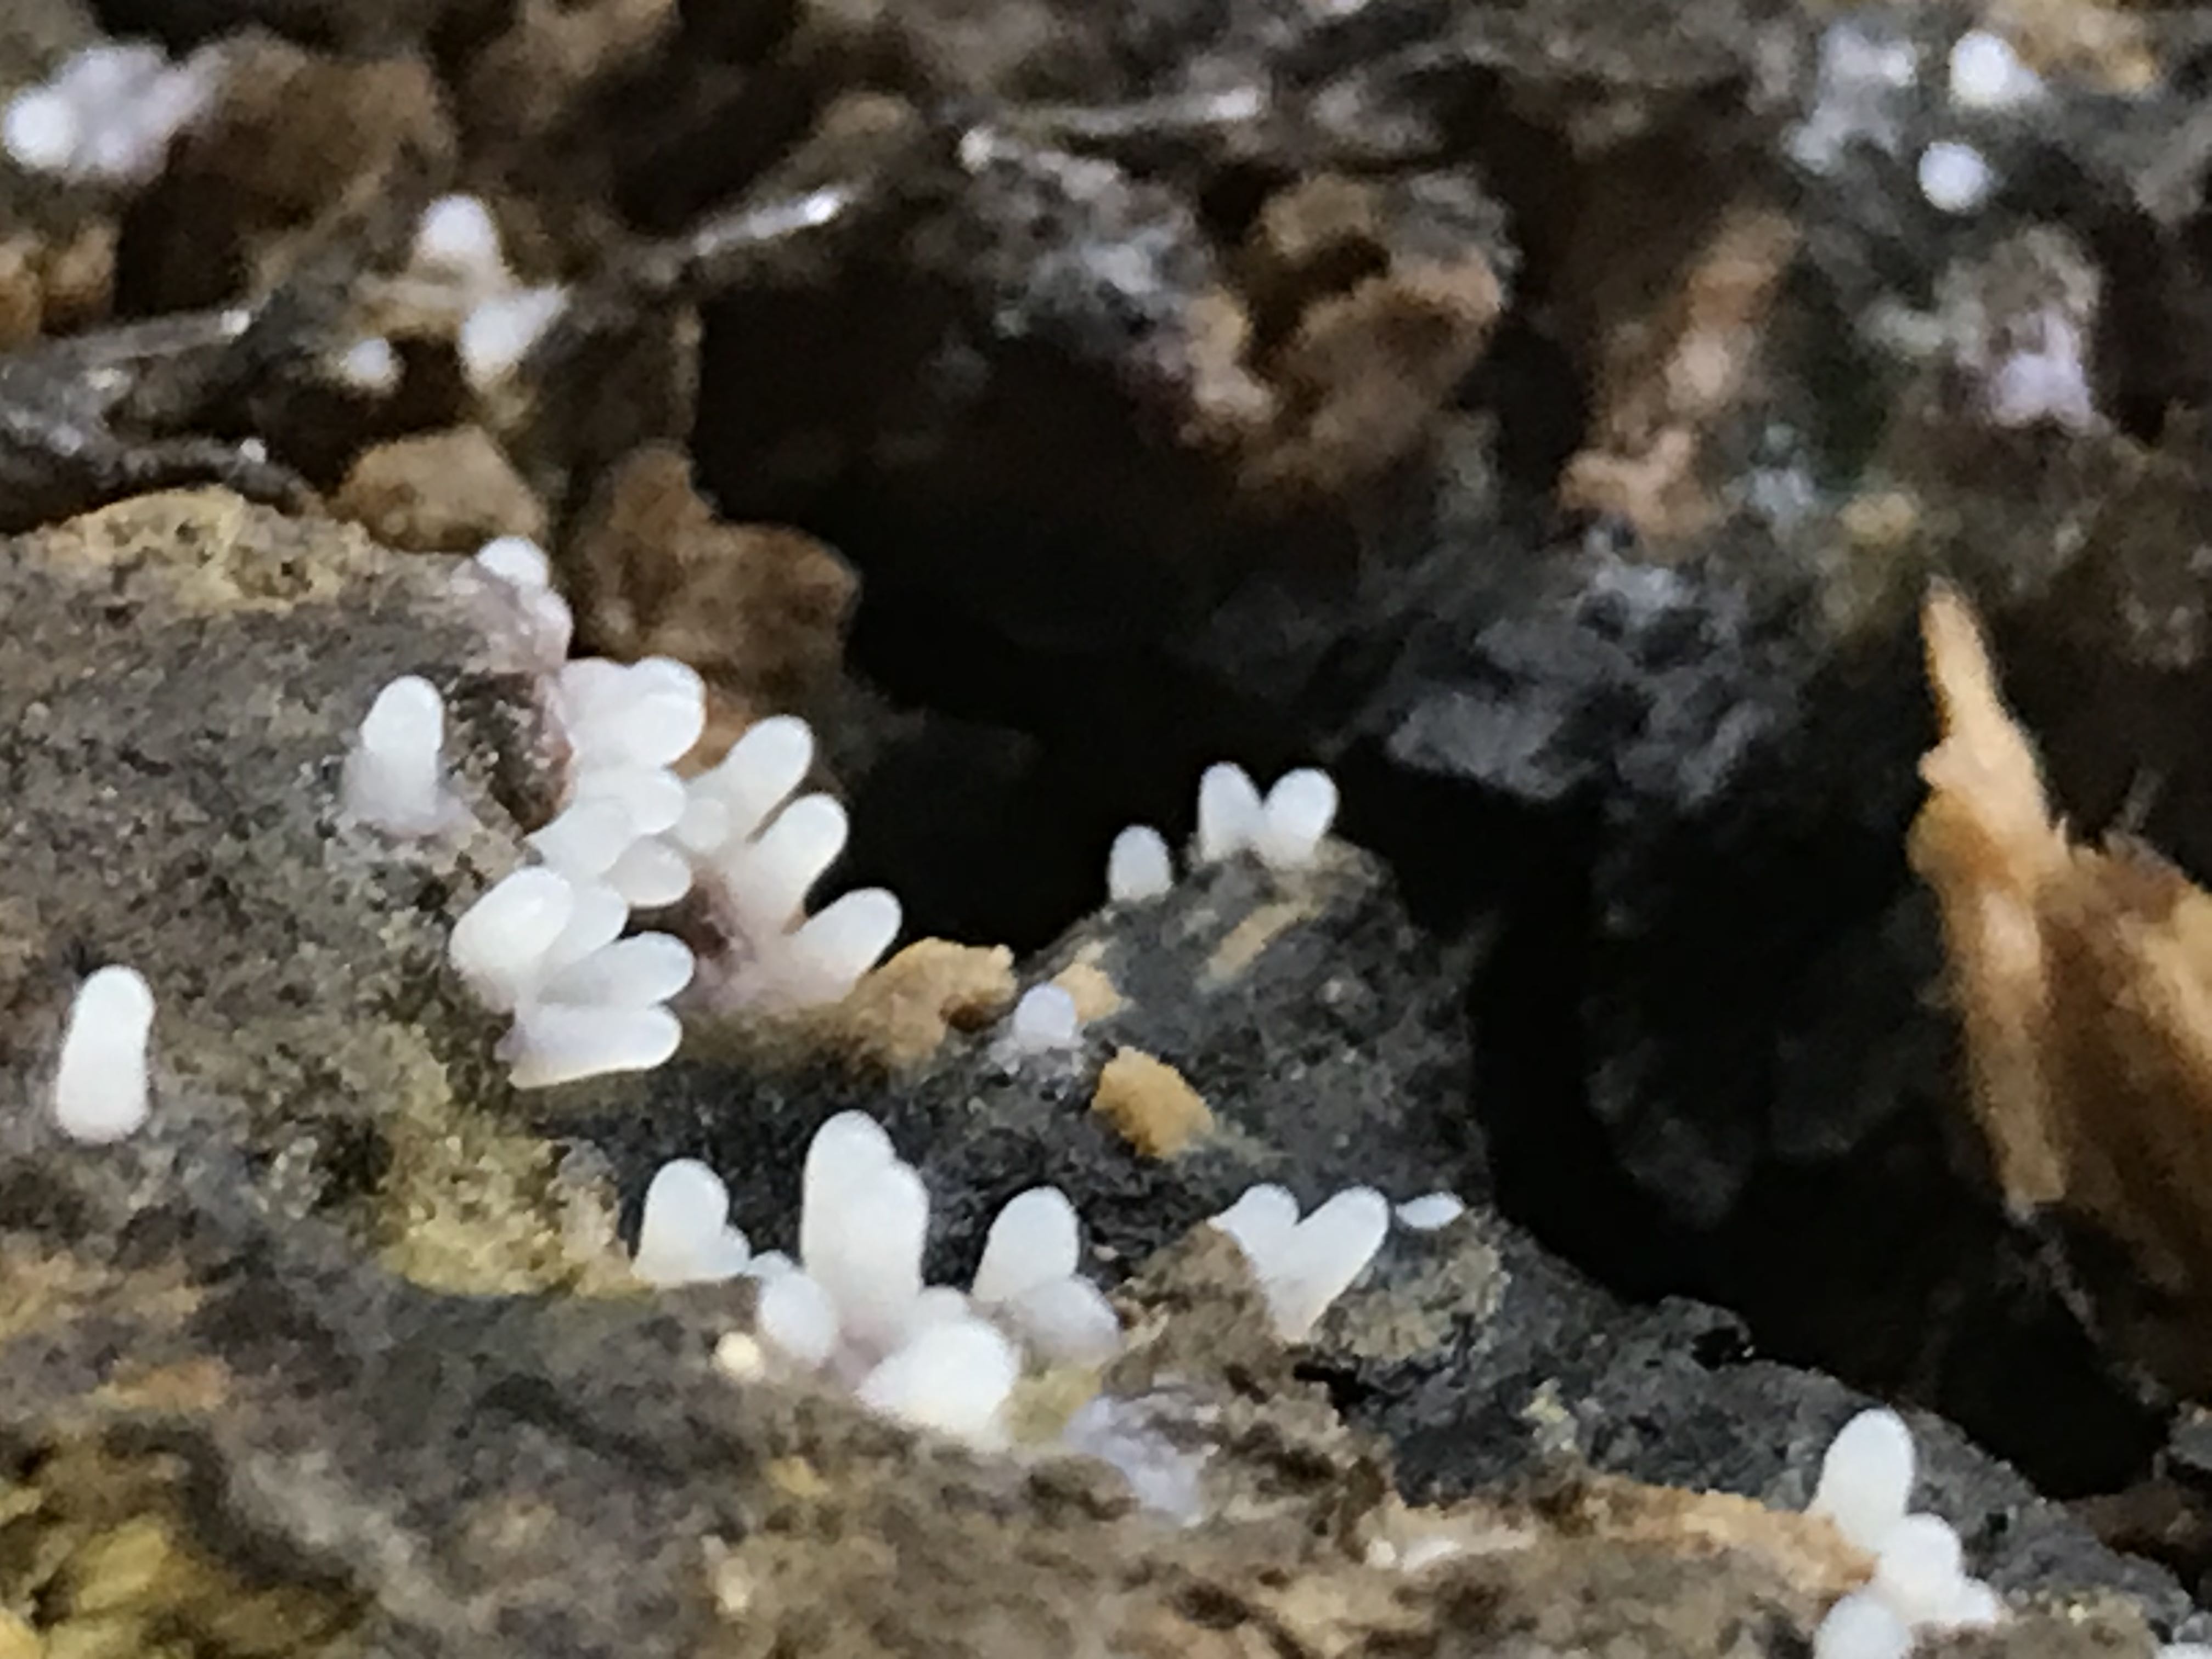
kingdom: Protozoa
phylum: Mycetozoa
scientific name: Mycetozoa
